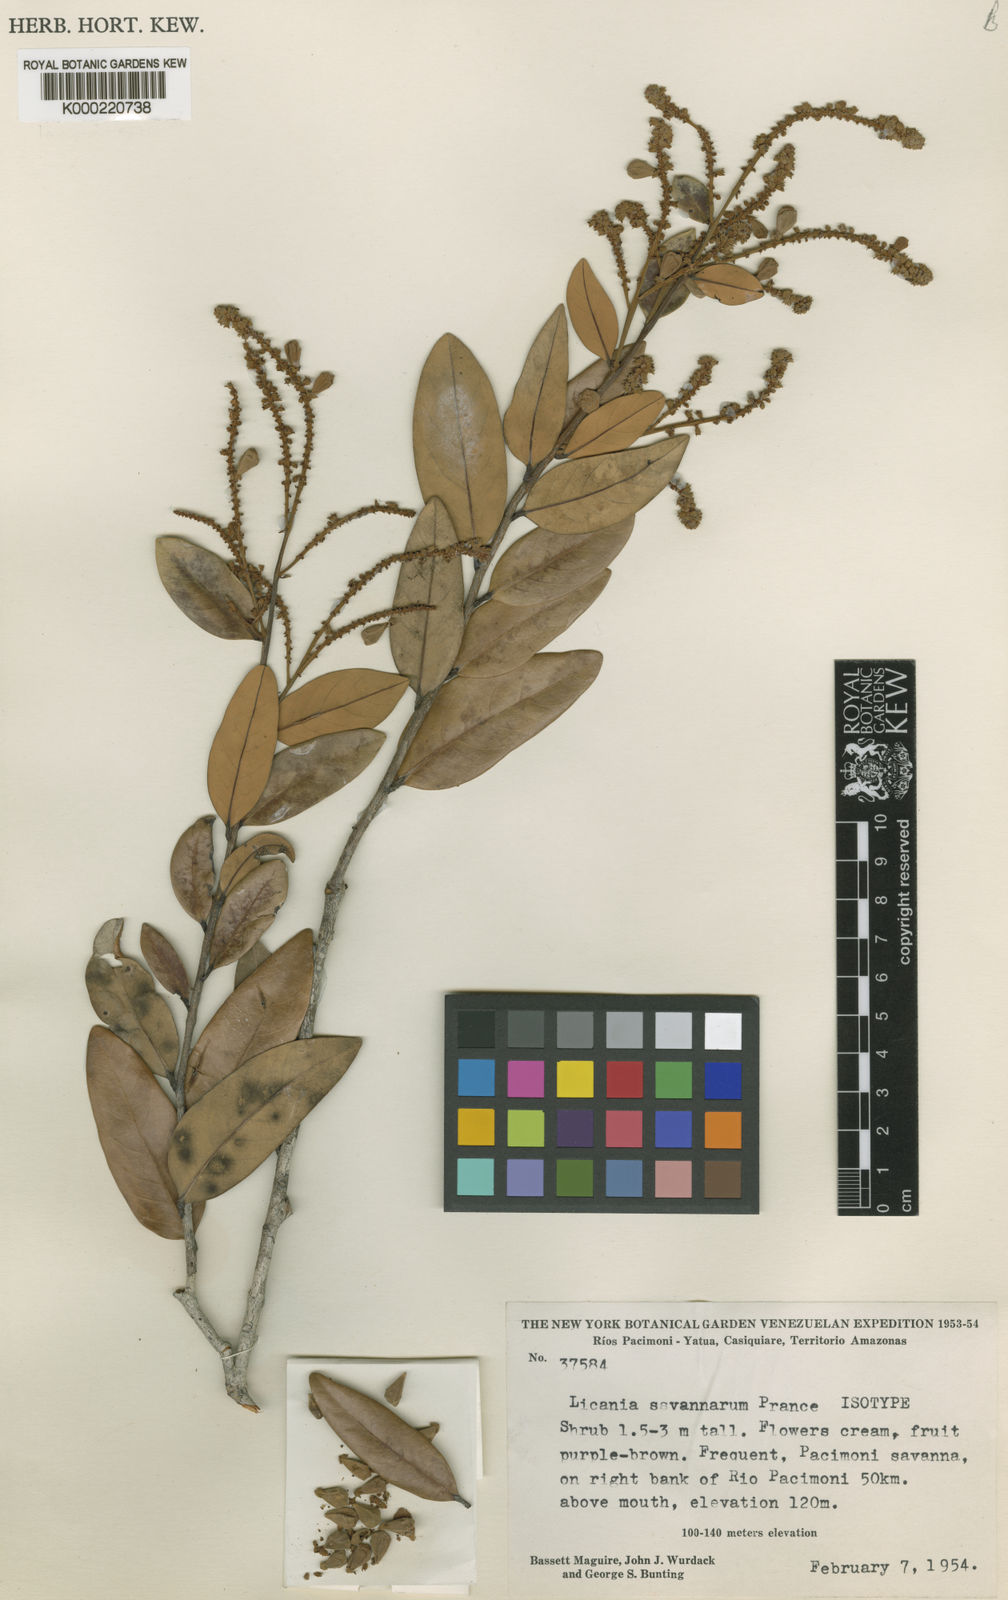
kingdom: Plantae
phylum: Tracheophyta
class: Magnoliopsida
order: Malpighiales
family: Chrysobalanaceae
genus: Licania
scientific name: Licania savannarum
